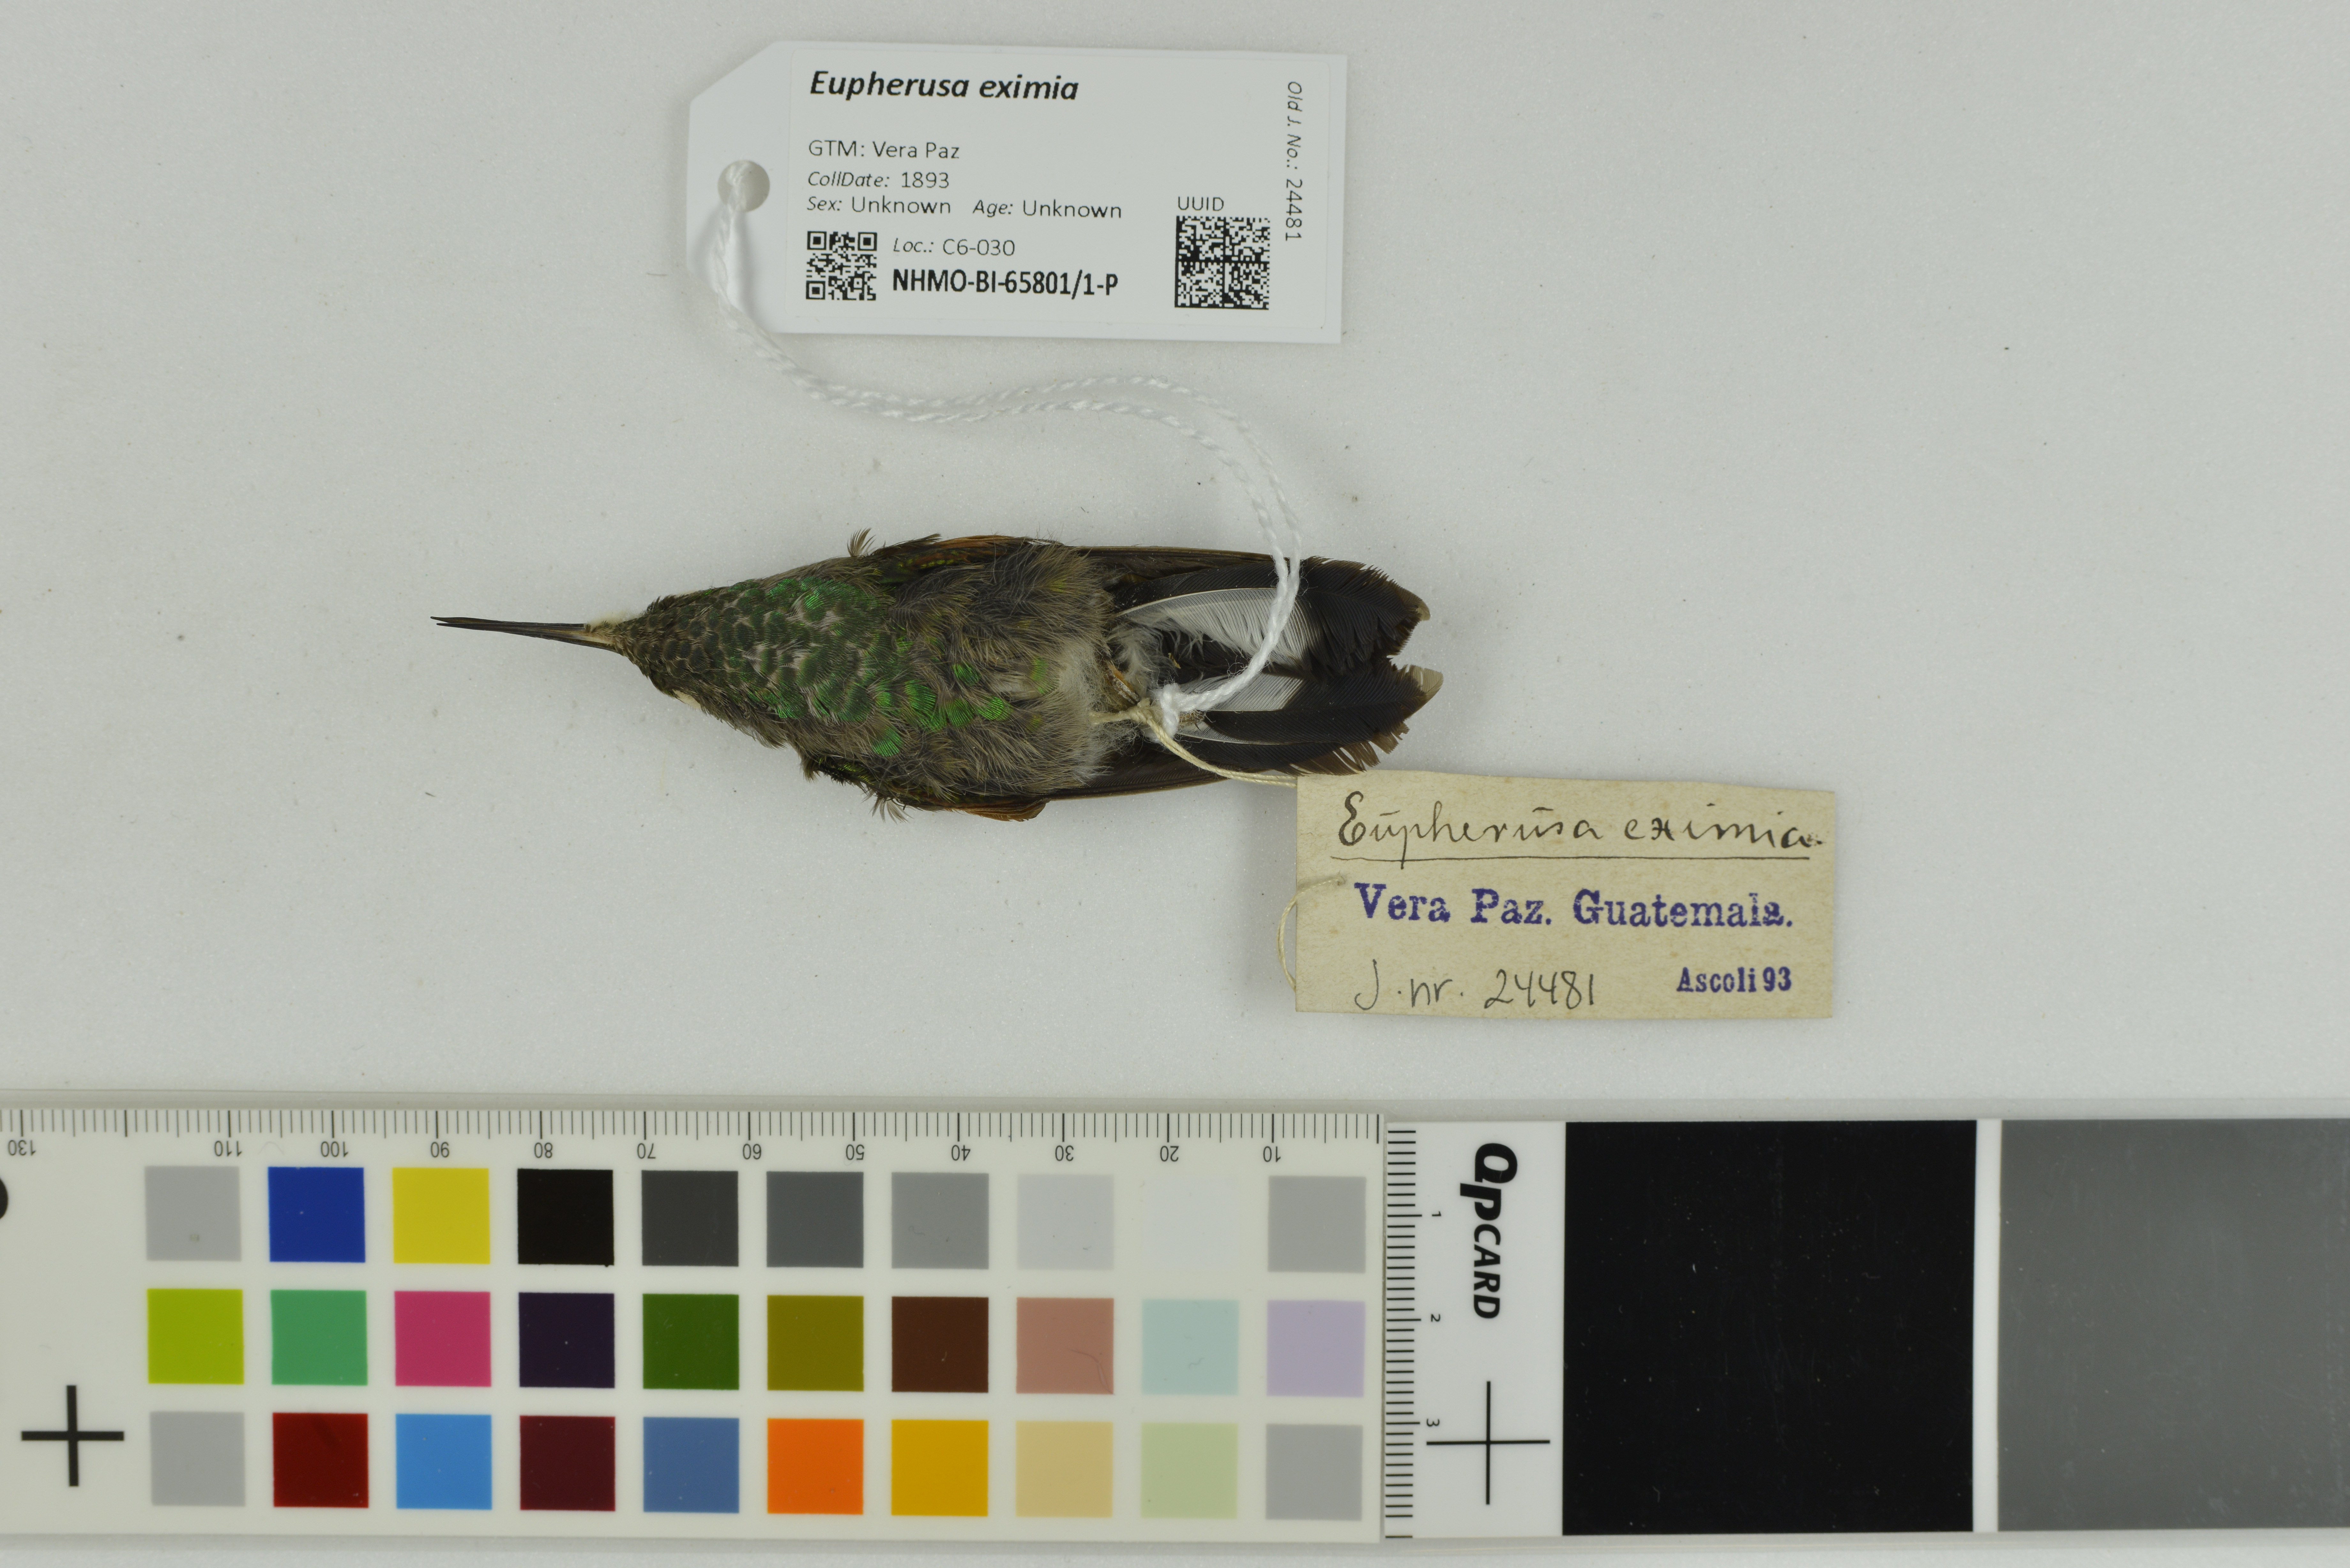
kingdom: Animalia
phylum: Chordata
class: Aves
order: Apodiformes
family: Trochilidae
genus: Eupherusa
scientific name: Eupherusa eximia
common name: Stripe-tailed hummingbird
